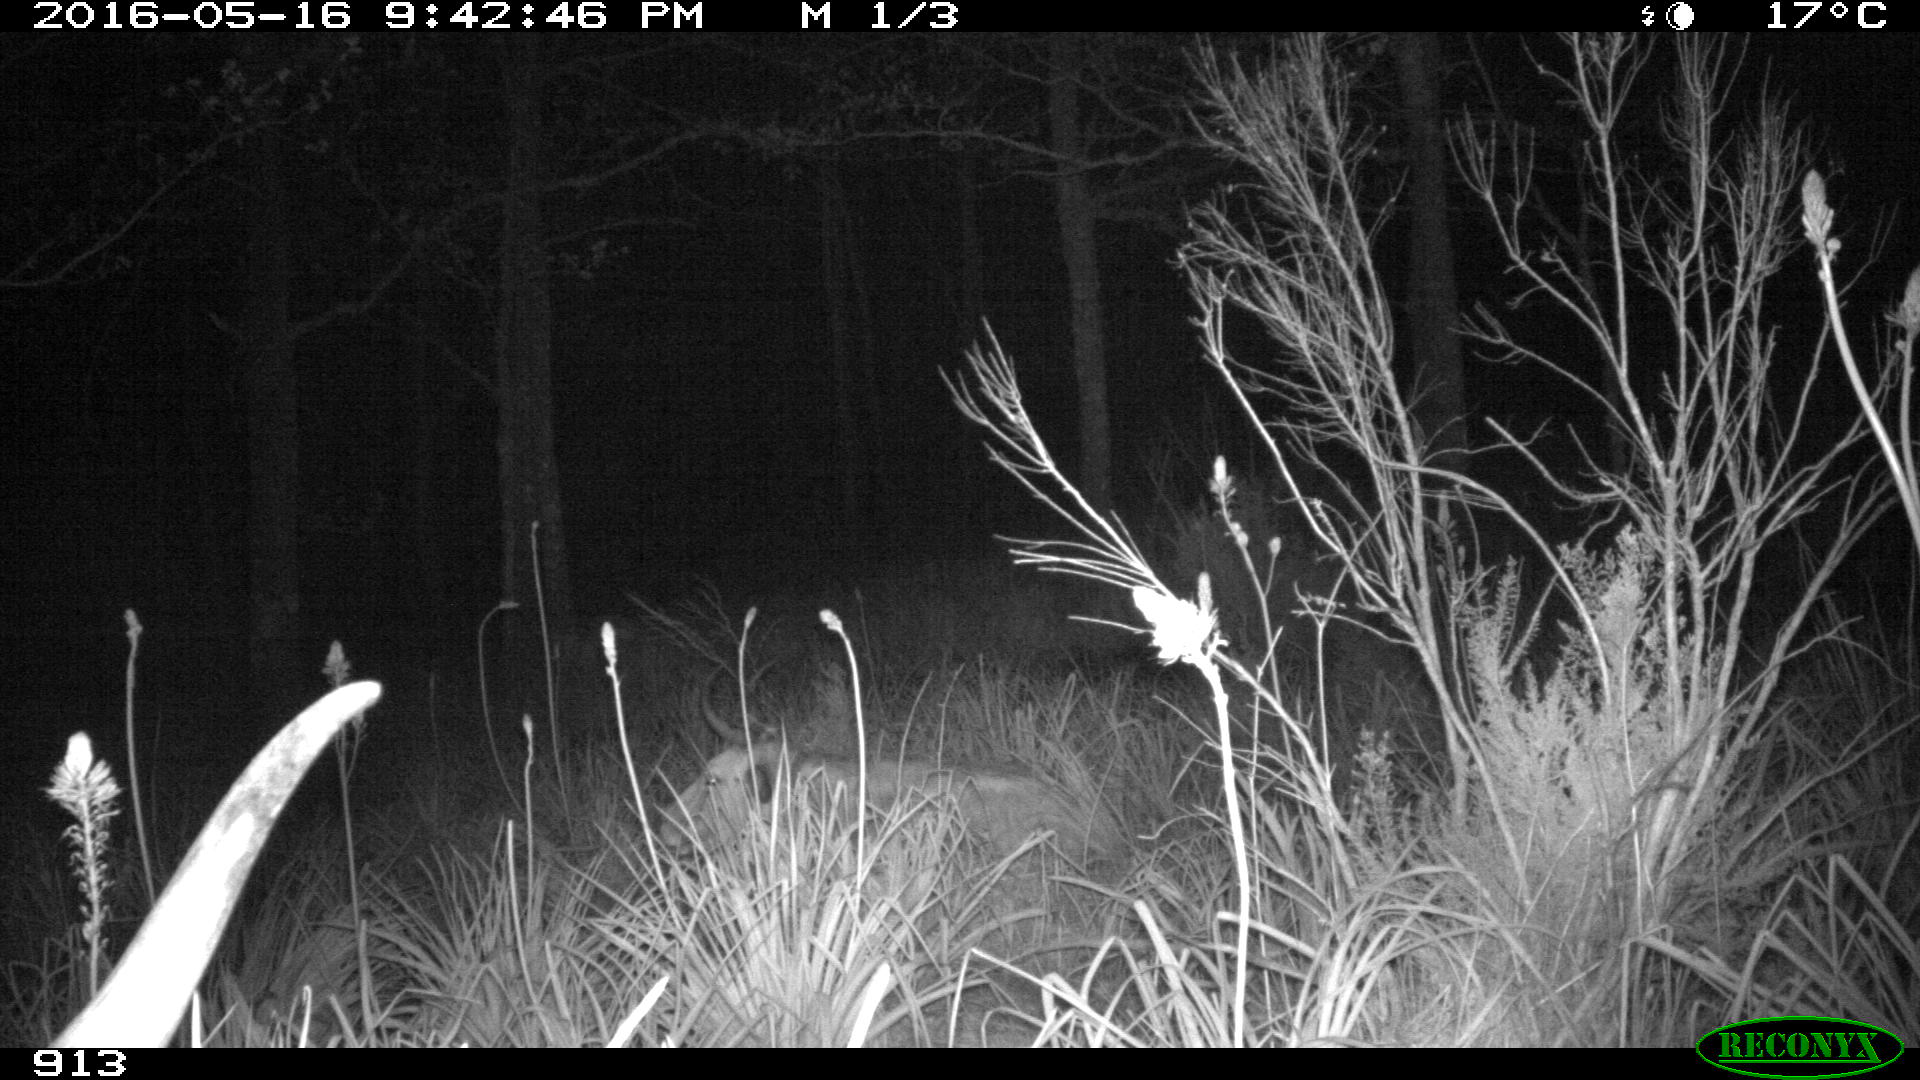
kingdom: Animalia
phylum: Chordata
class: Mammalia
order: Artiodactyla
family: Bovidae
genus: Bos
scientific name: Bos taurus
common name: Domesticated cattle
